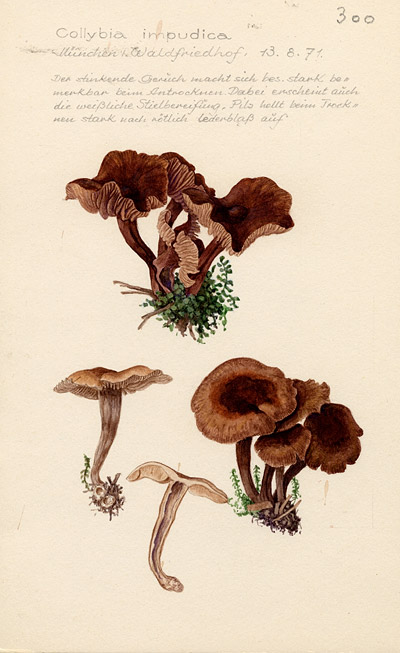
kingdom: Fungi
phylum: Basidiomycota
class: Agaricomycetes
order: Agaricales
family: Omphalotaceae
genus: Gymnopus
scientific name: Gymnopus impudicus
